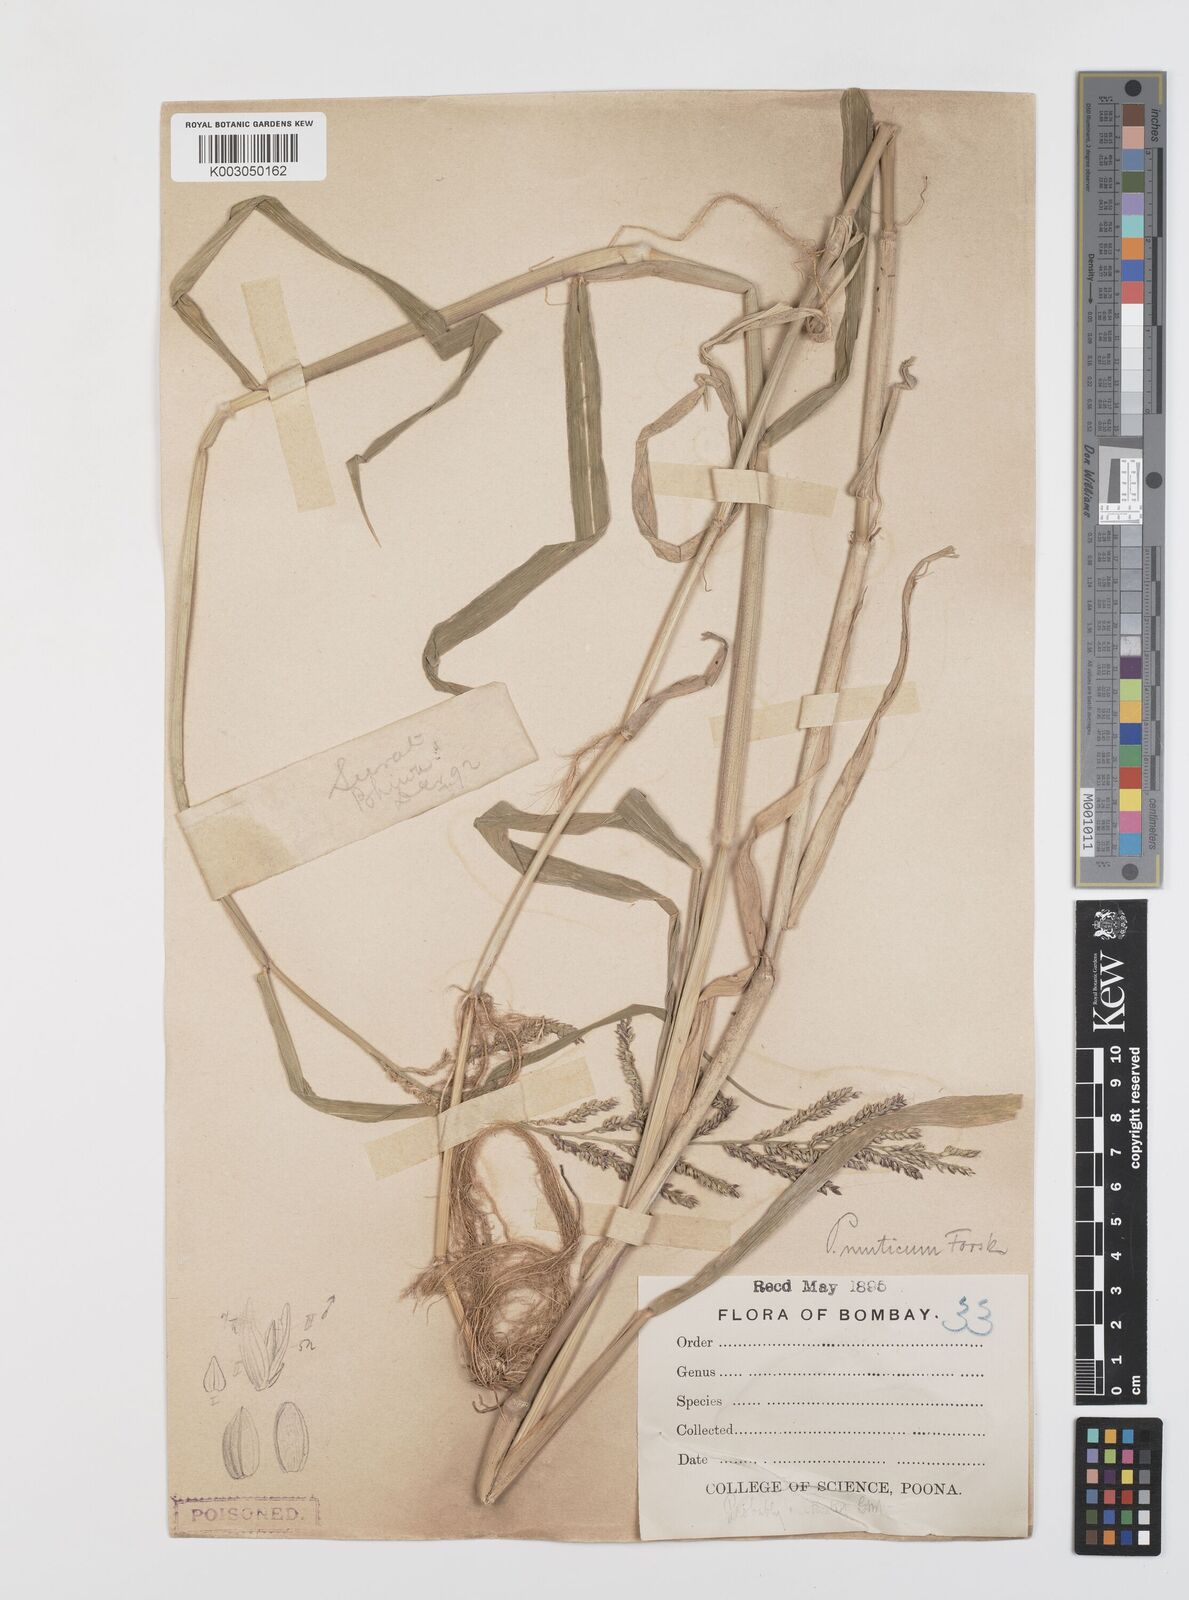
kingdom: Plantae
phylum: Tracheophyta
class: Liliopsida
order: Poales
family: Poaceae
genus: Urochloa
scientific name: Urochloa mutica
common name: Para grass
